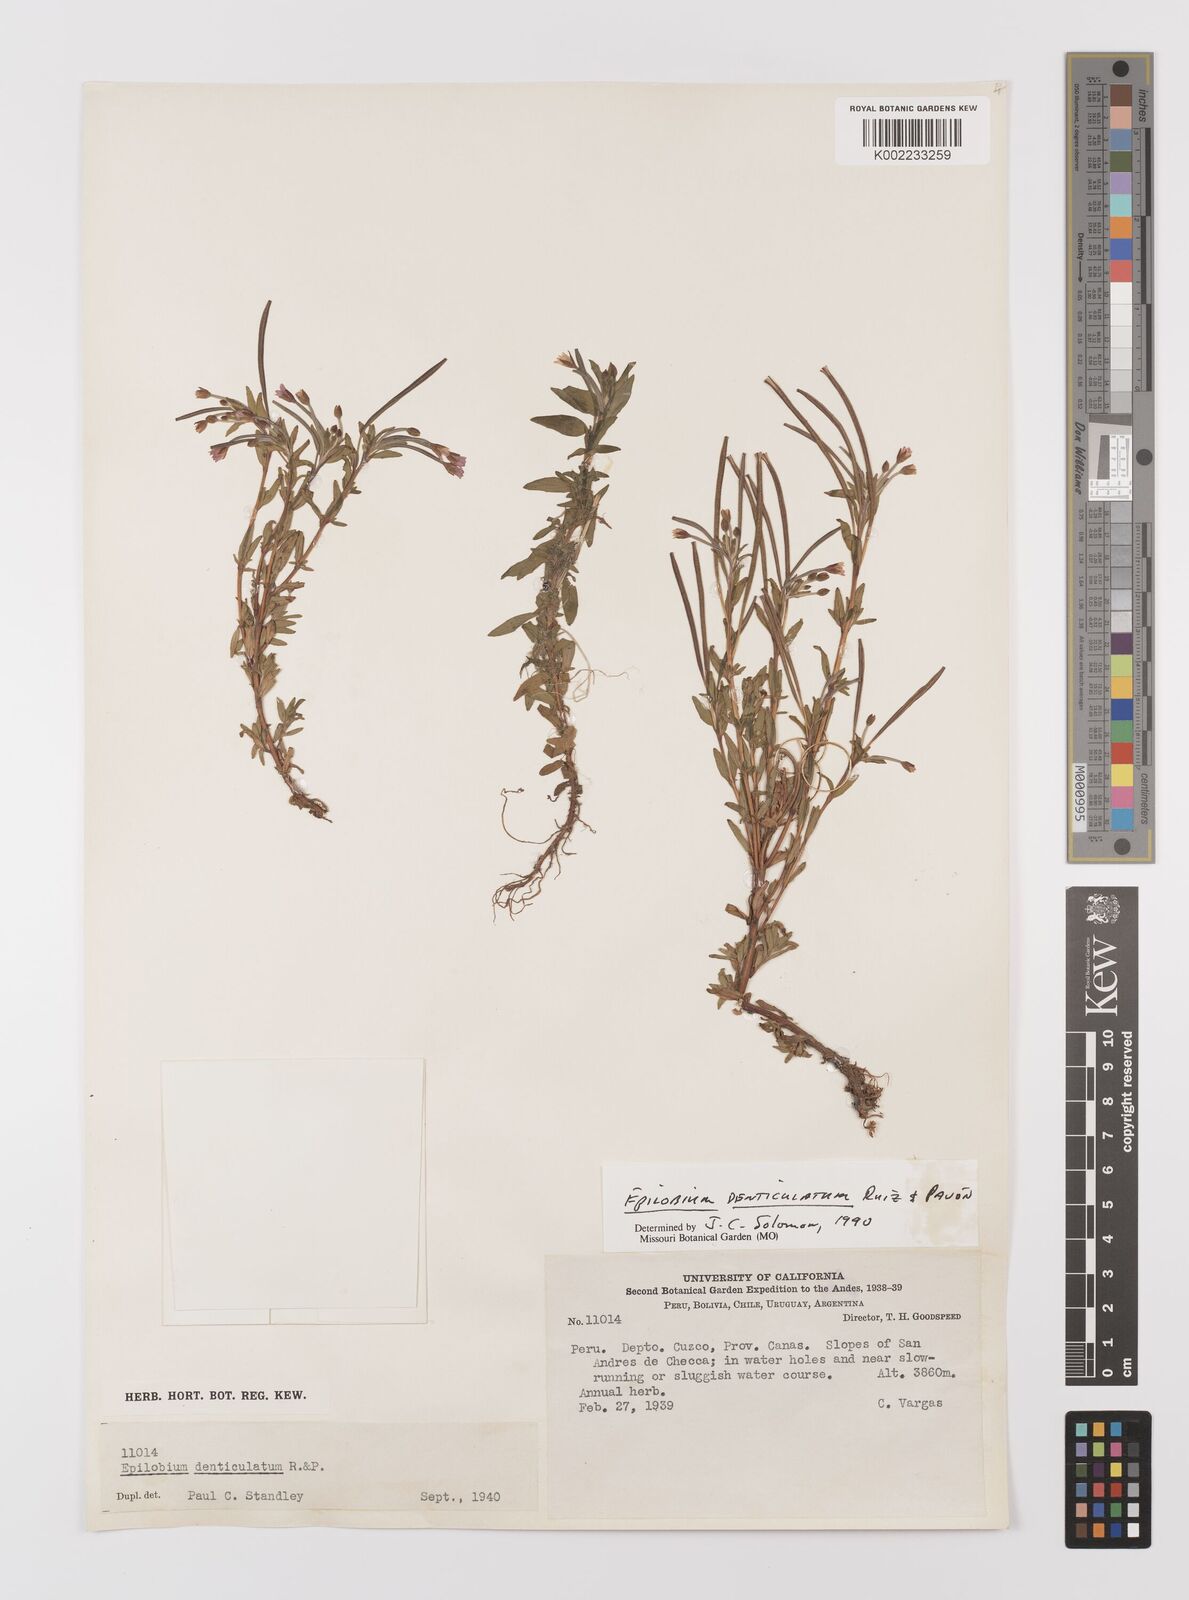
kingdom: Plantae
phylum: Tracheophyta
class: Magnoliopsida
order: Myrtales
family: Onagraceae
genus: Epilobium
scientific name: Epilobium denticulatum
